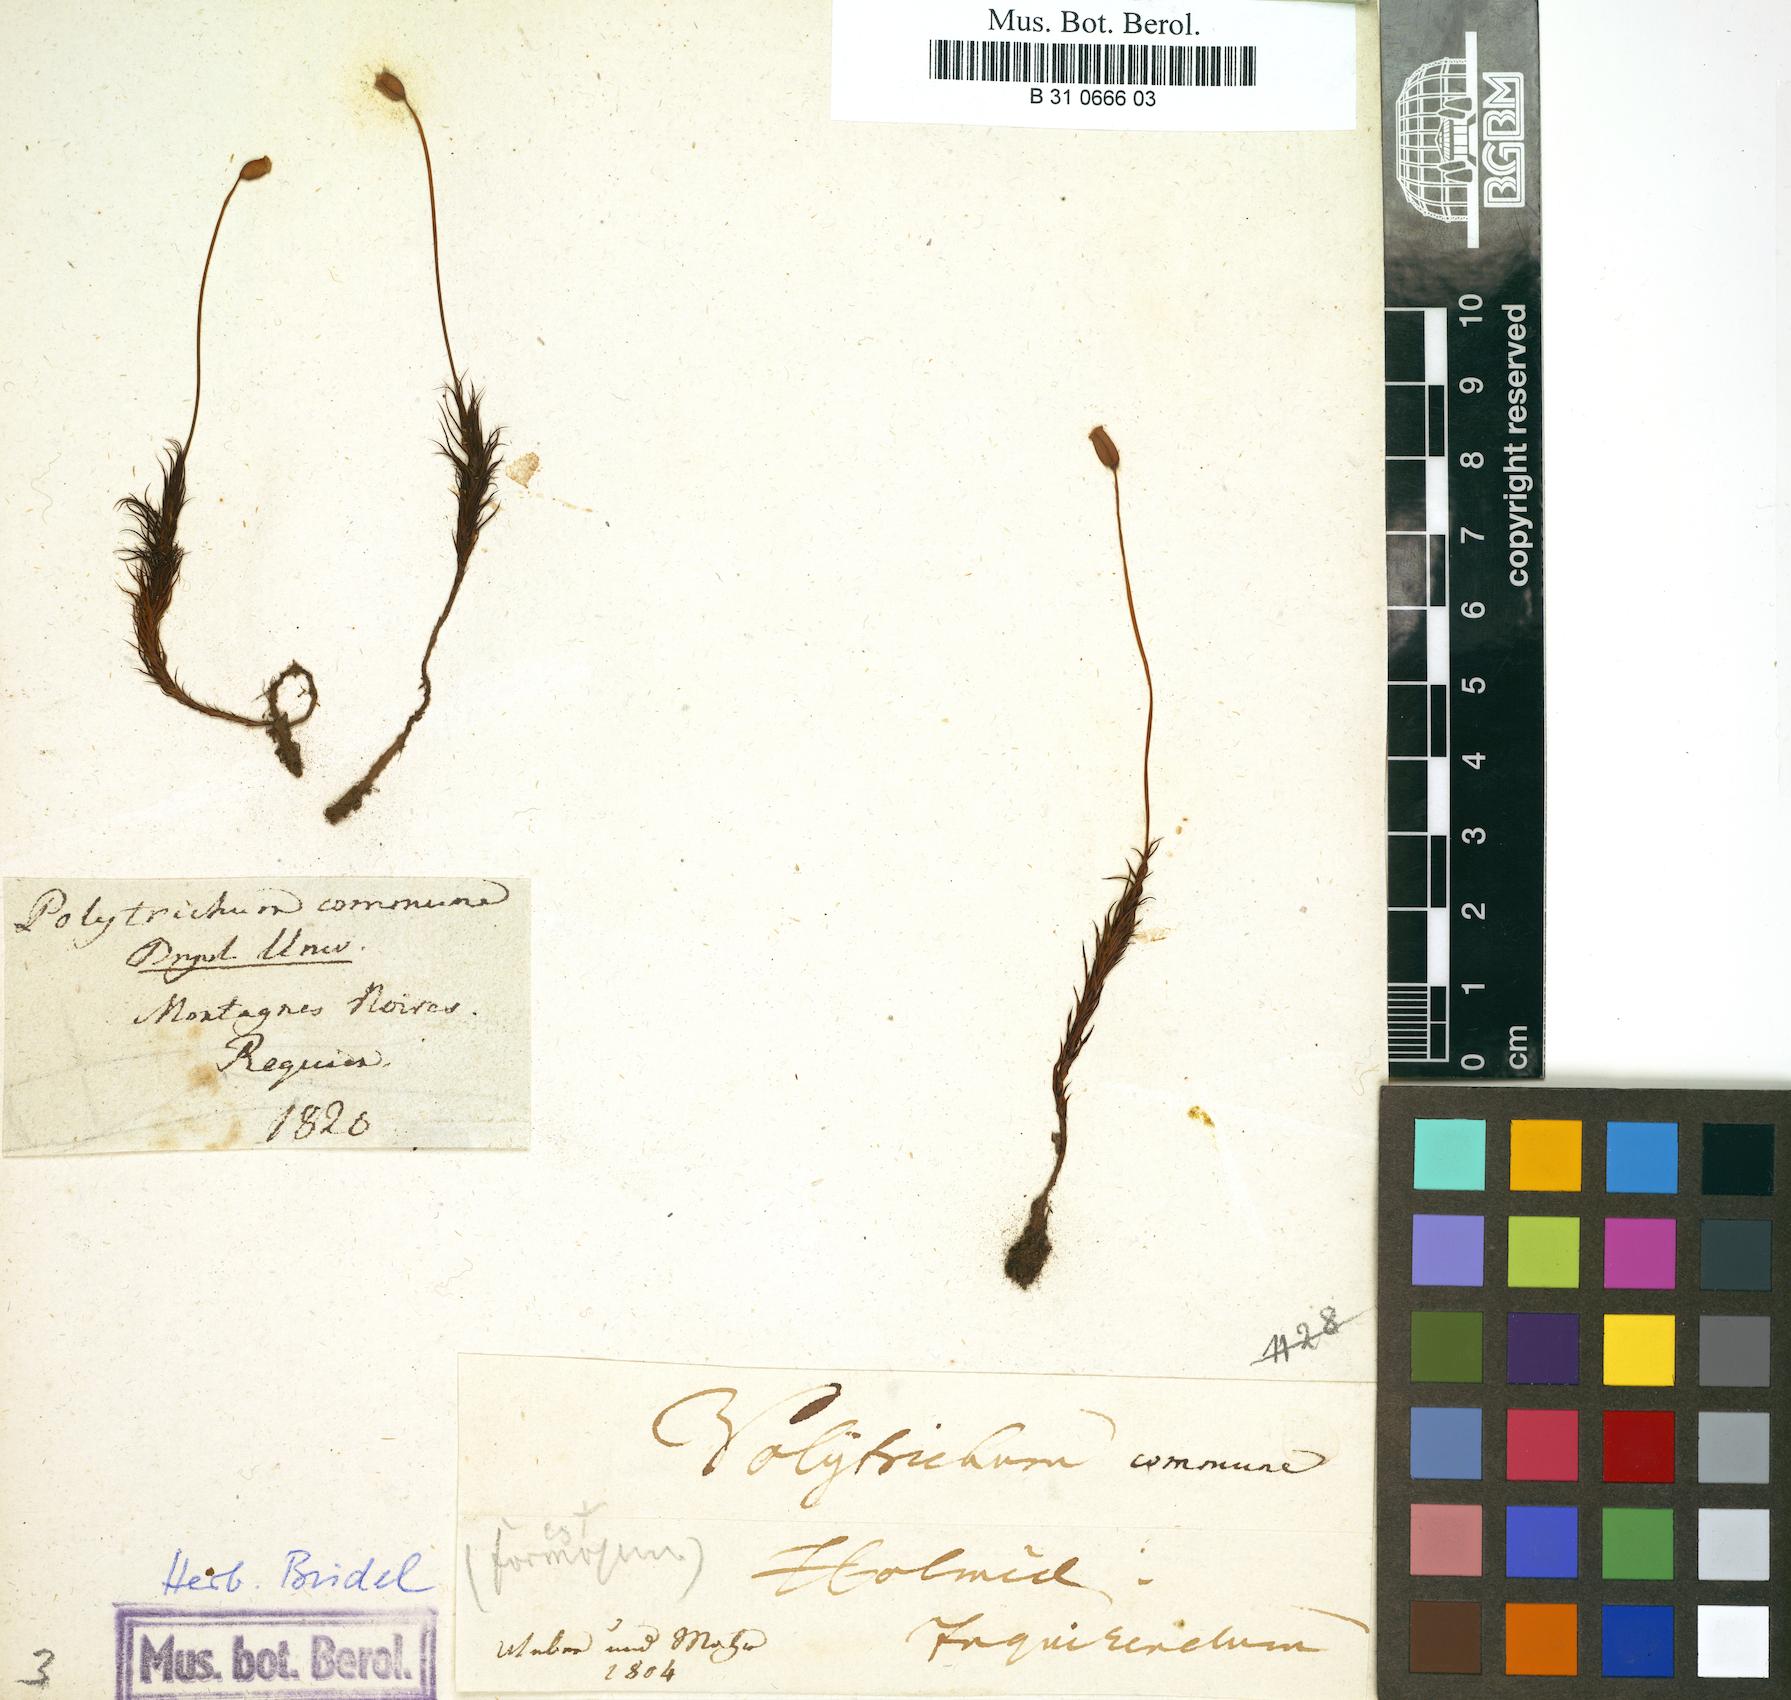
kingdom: Plantae
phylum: Bryophyta
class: Polytrichopsida
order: Polytrichales
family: Polytrichaceae
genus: Polytrichum
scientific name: Polytrichum commune
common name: Common haircap
